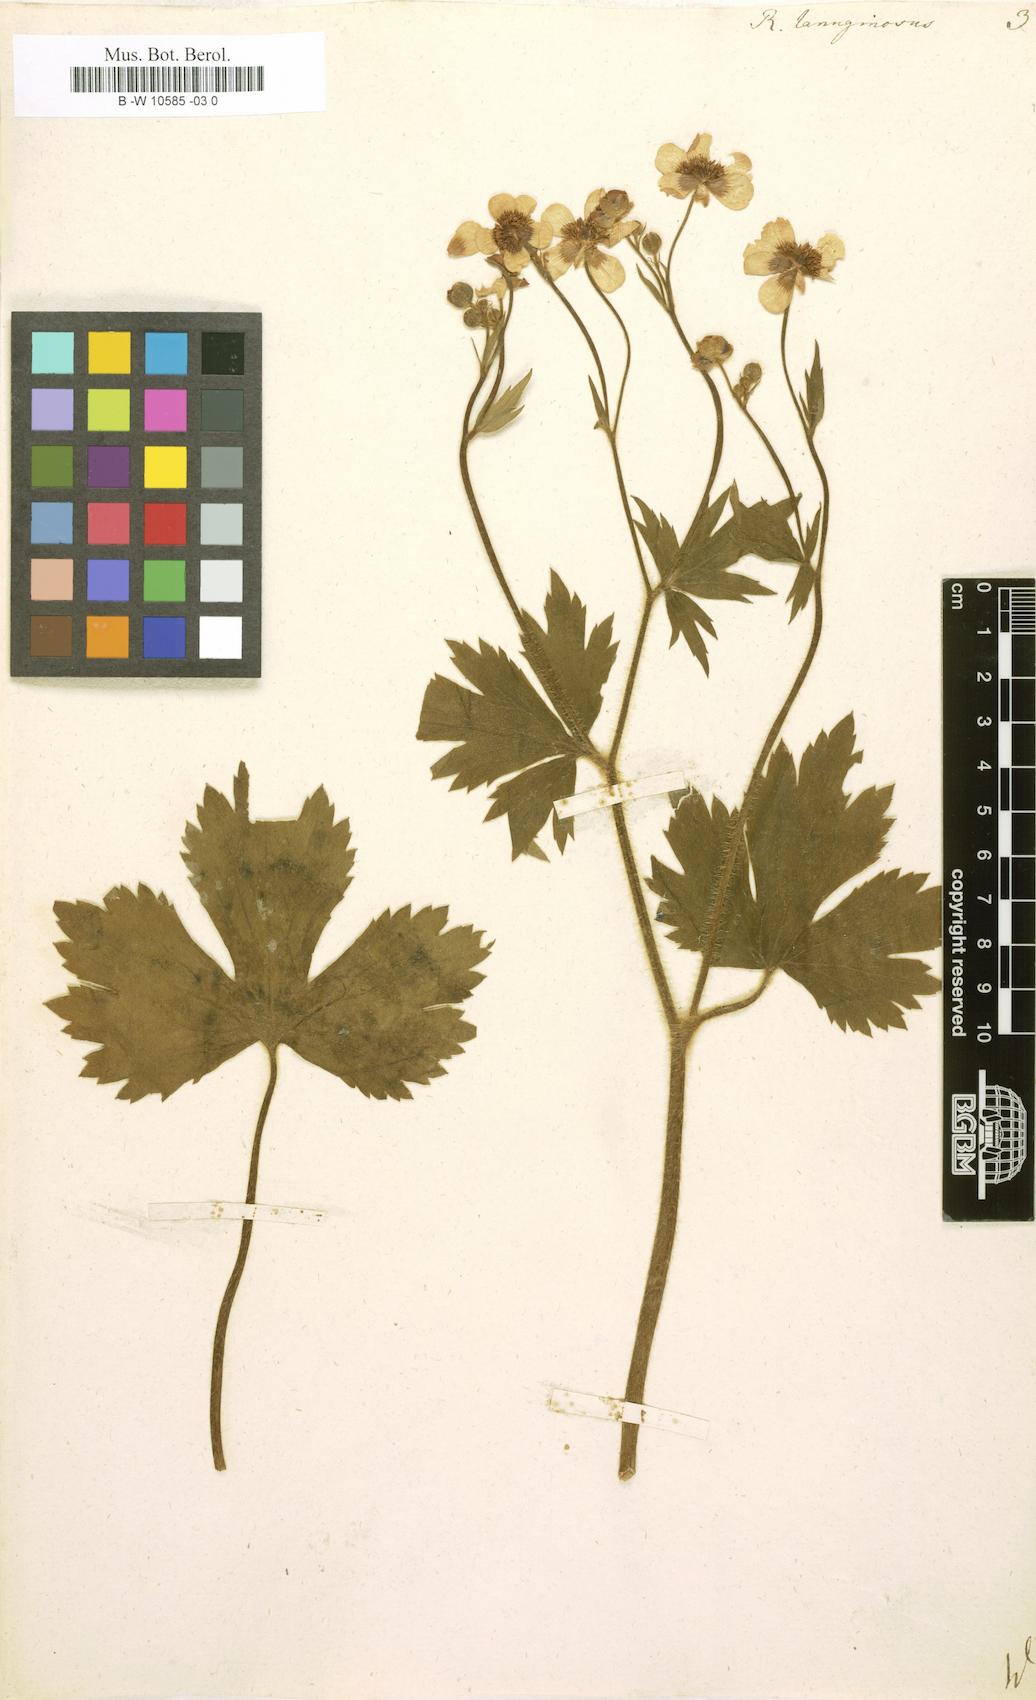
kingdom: Plantae
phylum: Tracheophyta
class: Magnoliopsida
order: Ranunculales
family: Ranunculaceae
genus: Ranunculus
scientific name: Ranunculus lanuginosus
